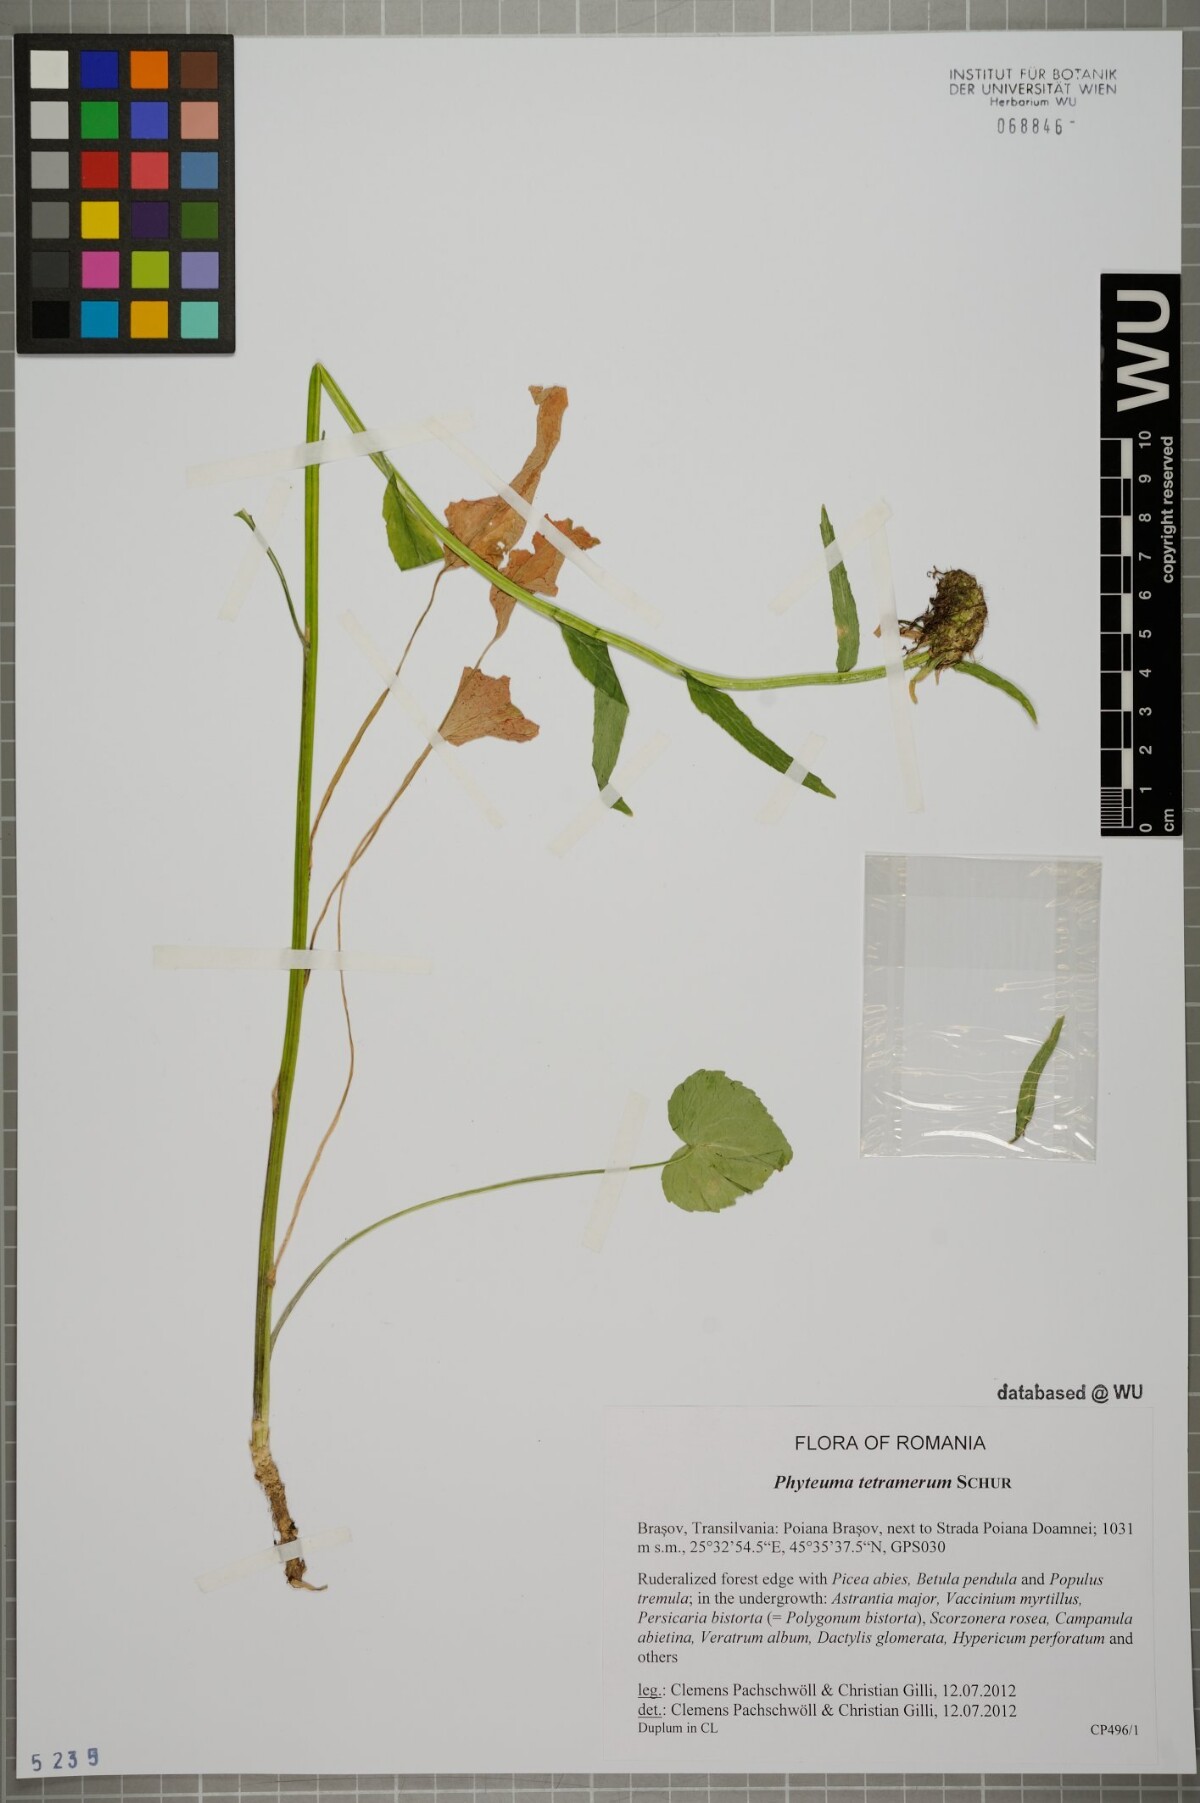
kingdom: Plantae
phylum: Tracheophyta
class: Magnoliopsida
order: Asterales
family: Campanulaceae
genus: Phyteuma
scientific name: Phyteuma tetramerum
